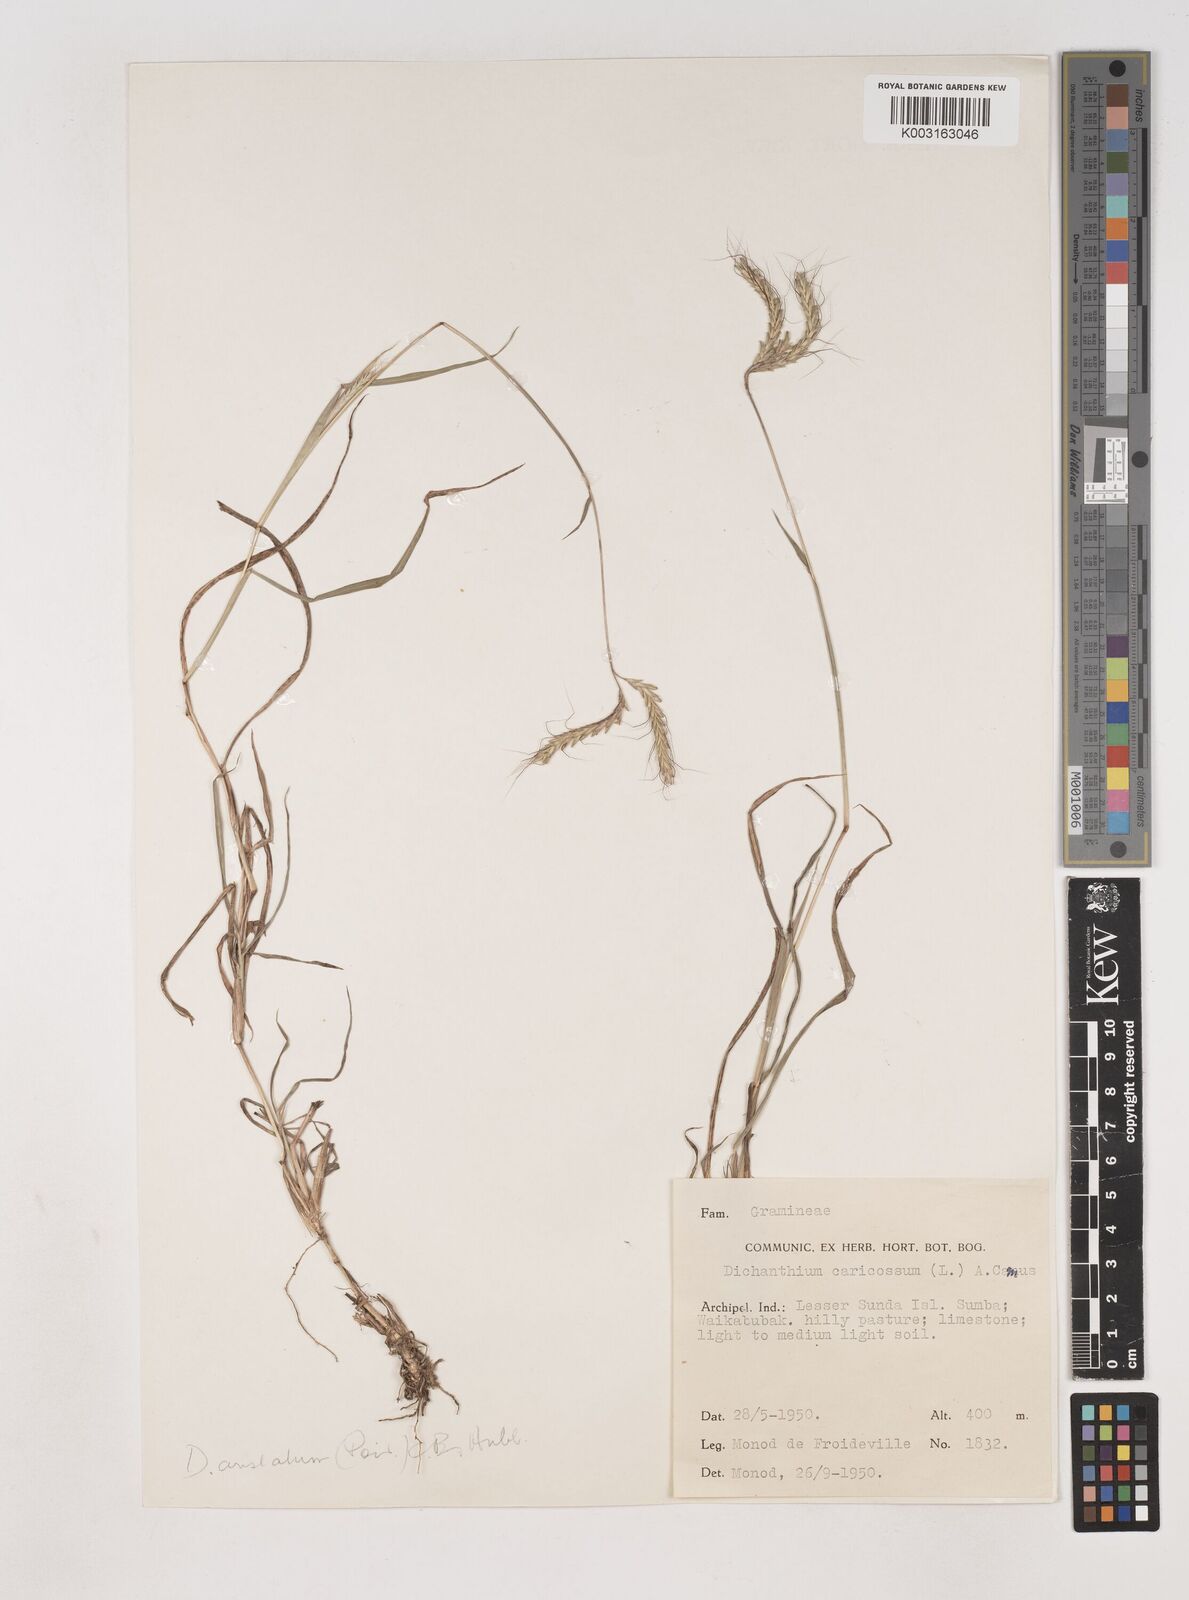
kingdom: Plantae
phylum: Tracheophyta
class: Liliopsida
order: Poales
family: Poaceae
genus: Dichanthium
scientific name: Dichanthium aristatum
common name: Angleton bluestem
